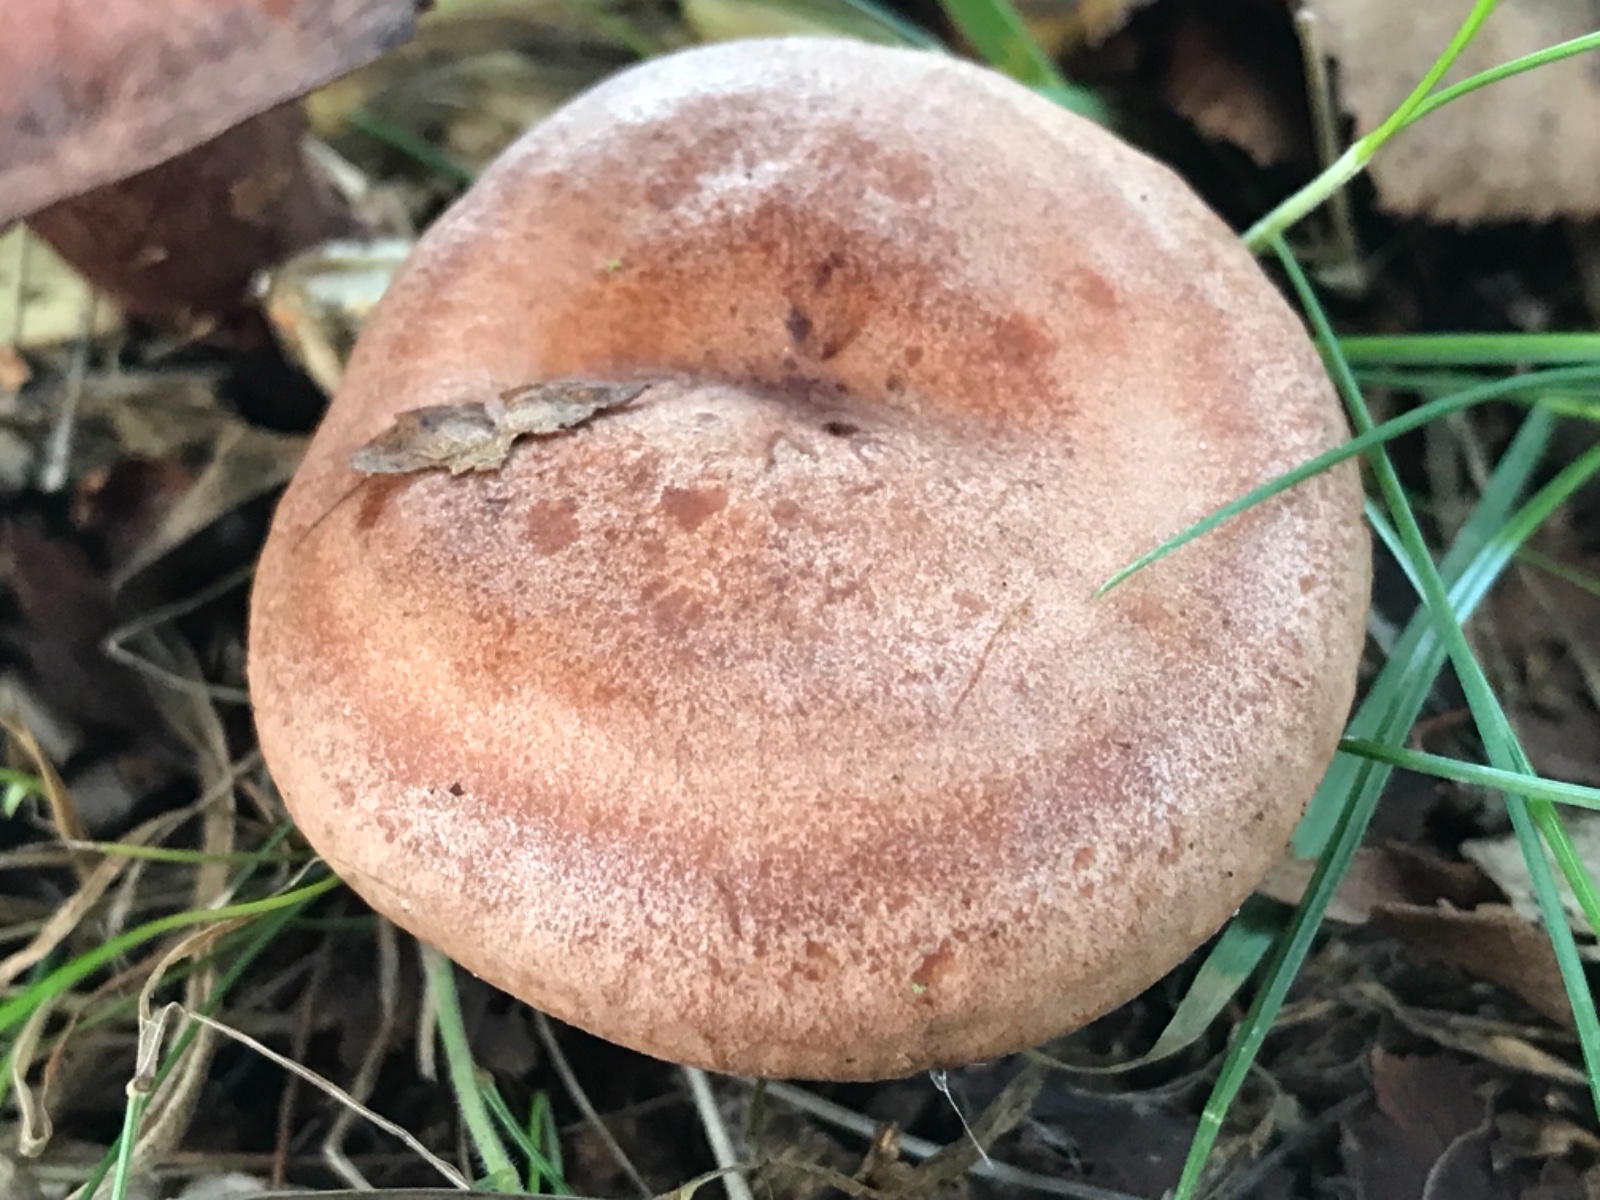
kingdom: Fungi
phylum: Basidiomycota
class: Agaricomycetes
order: Russulales
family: Russulaceae
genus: Lactarius
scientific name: Lactarius quietus
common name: ege-mælkehat
